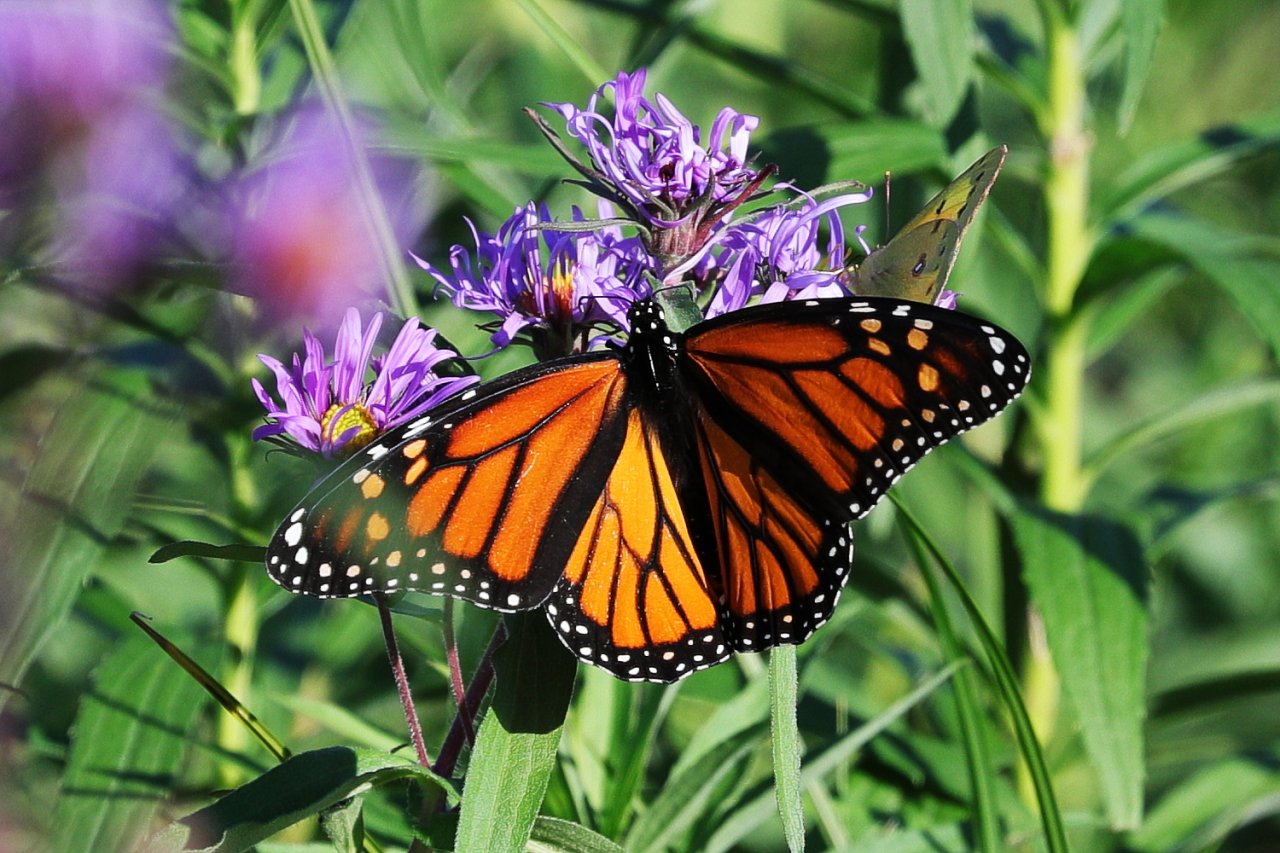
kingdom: Animalia
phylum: Arthropoda
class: Insecta
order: Lepidoptera
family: Nymphalidae
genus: Danaus
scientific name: Danaus plexippus
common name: Monarch
